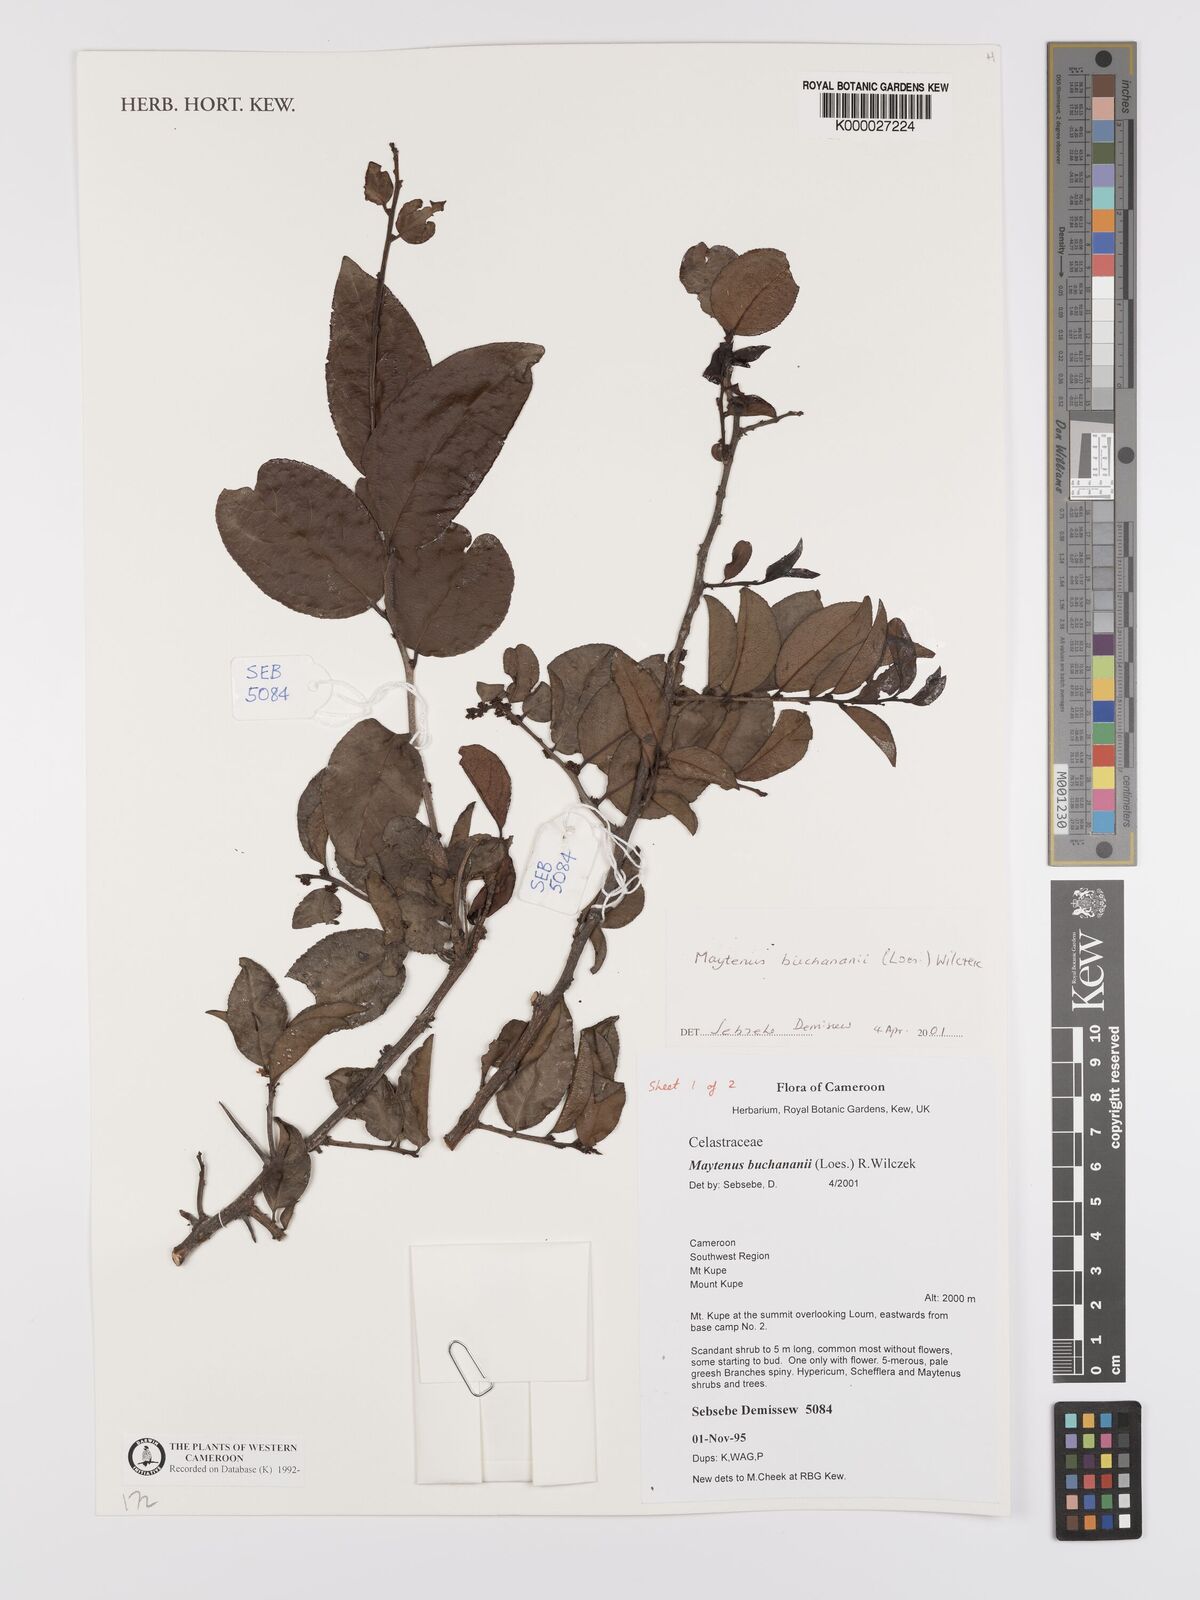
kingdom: Plantae
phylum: Tracheophyta
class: Magnoliopsida
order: Celastrales
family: Celastraceae
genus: Gymnosporia
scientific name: Gymnosporia buchananii
